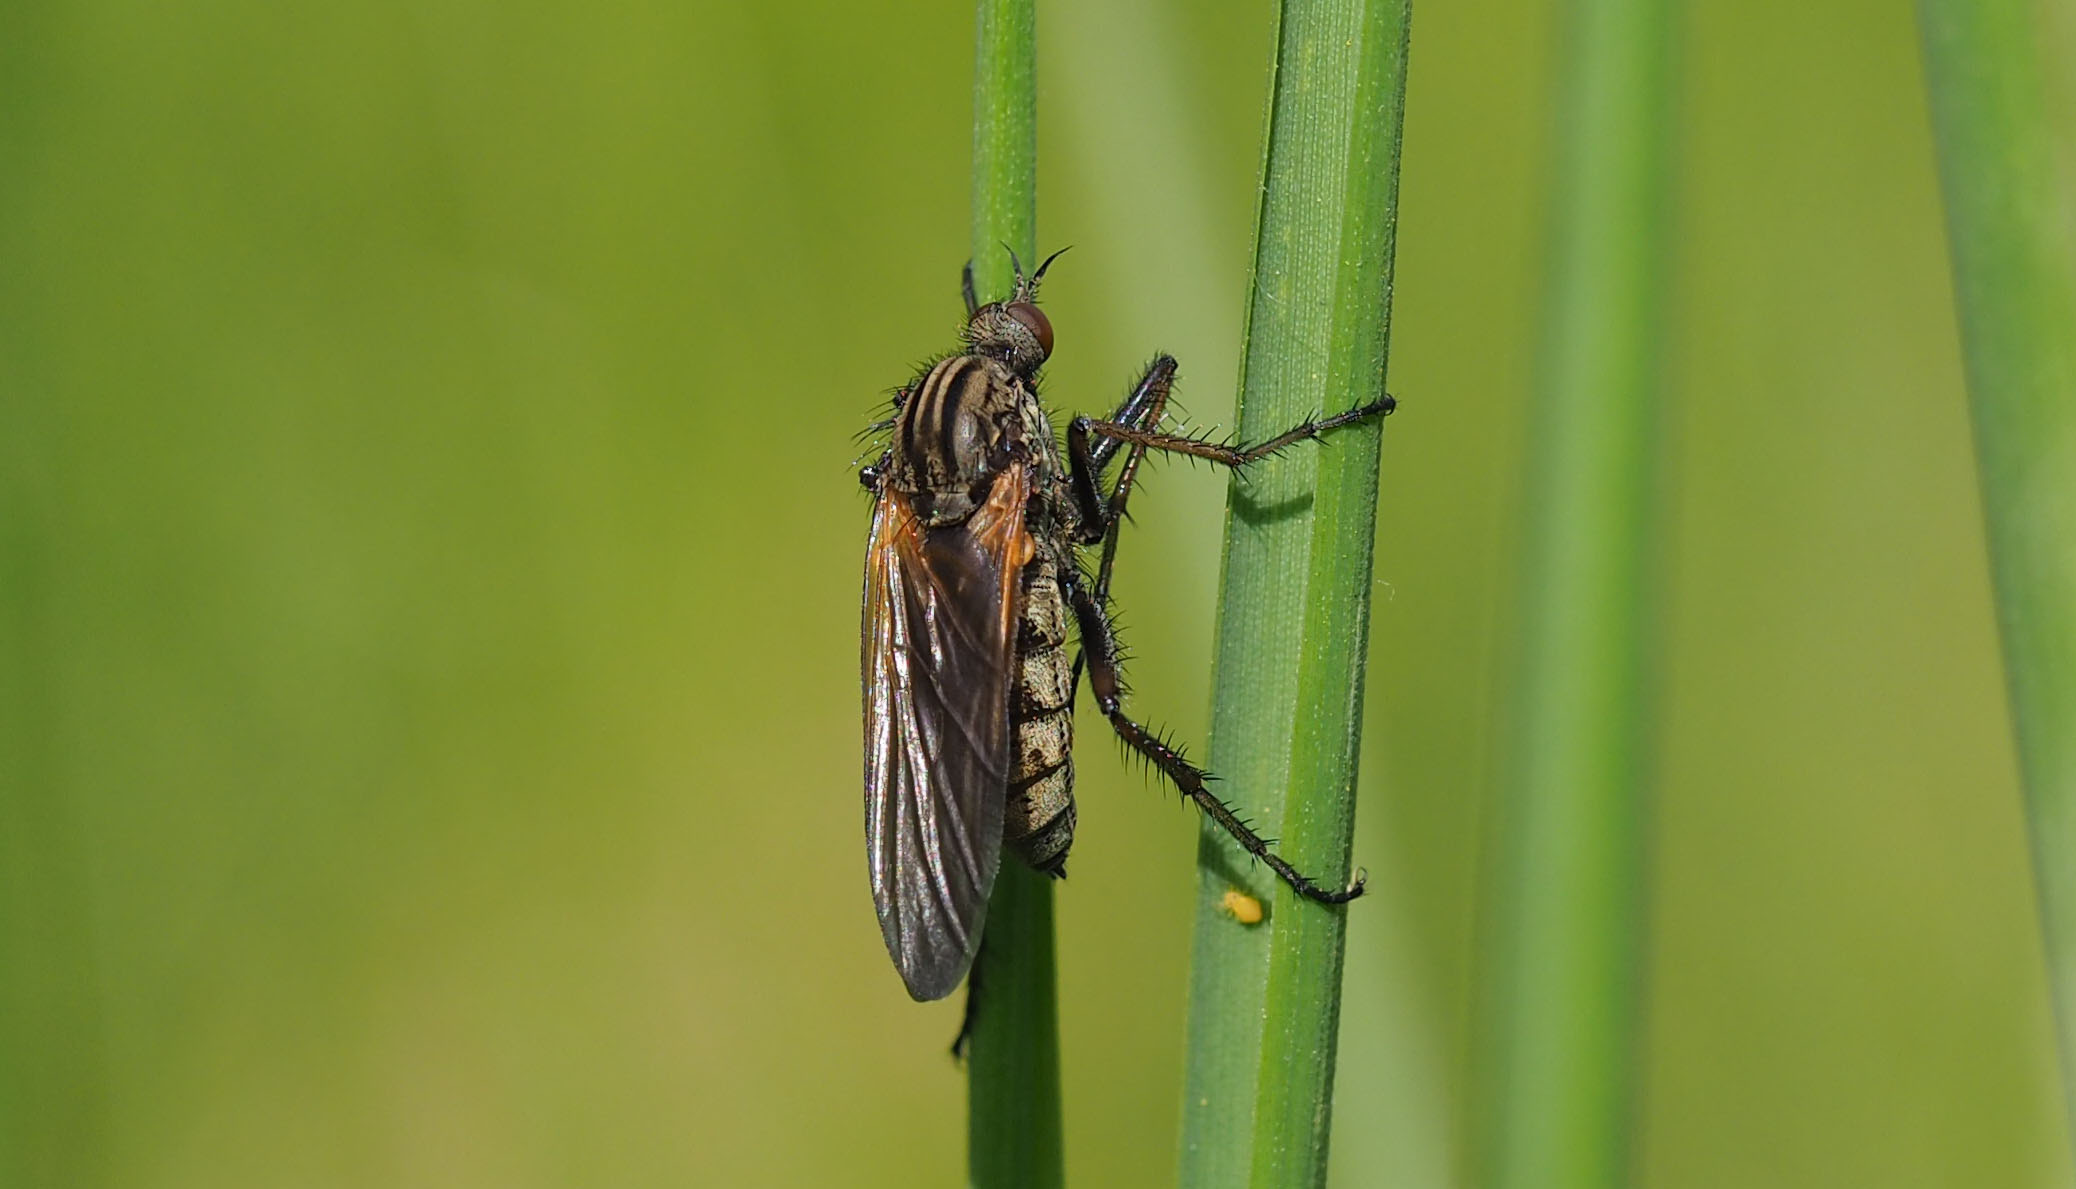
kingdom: Animalia
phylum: Arthropoda
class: Insecta
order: Diptera
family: Empididae
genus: Empis
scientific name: Empis tessellata
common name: Stor danseflue
